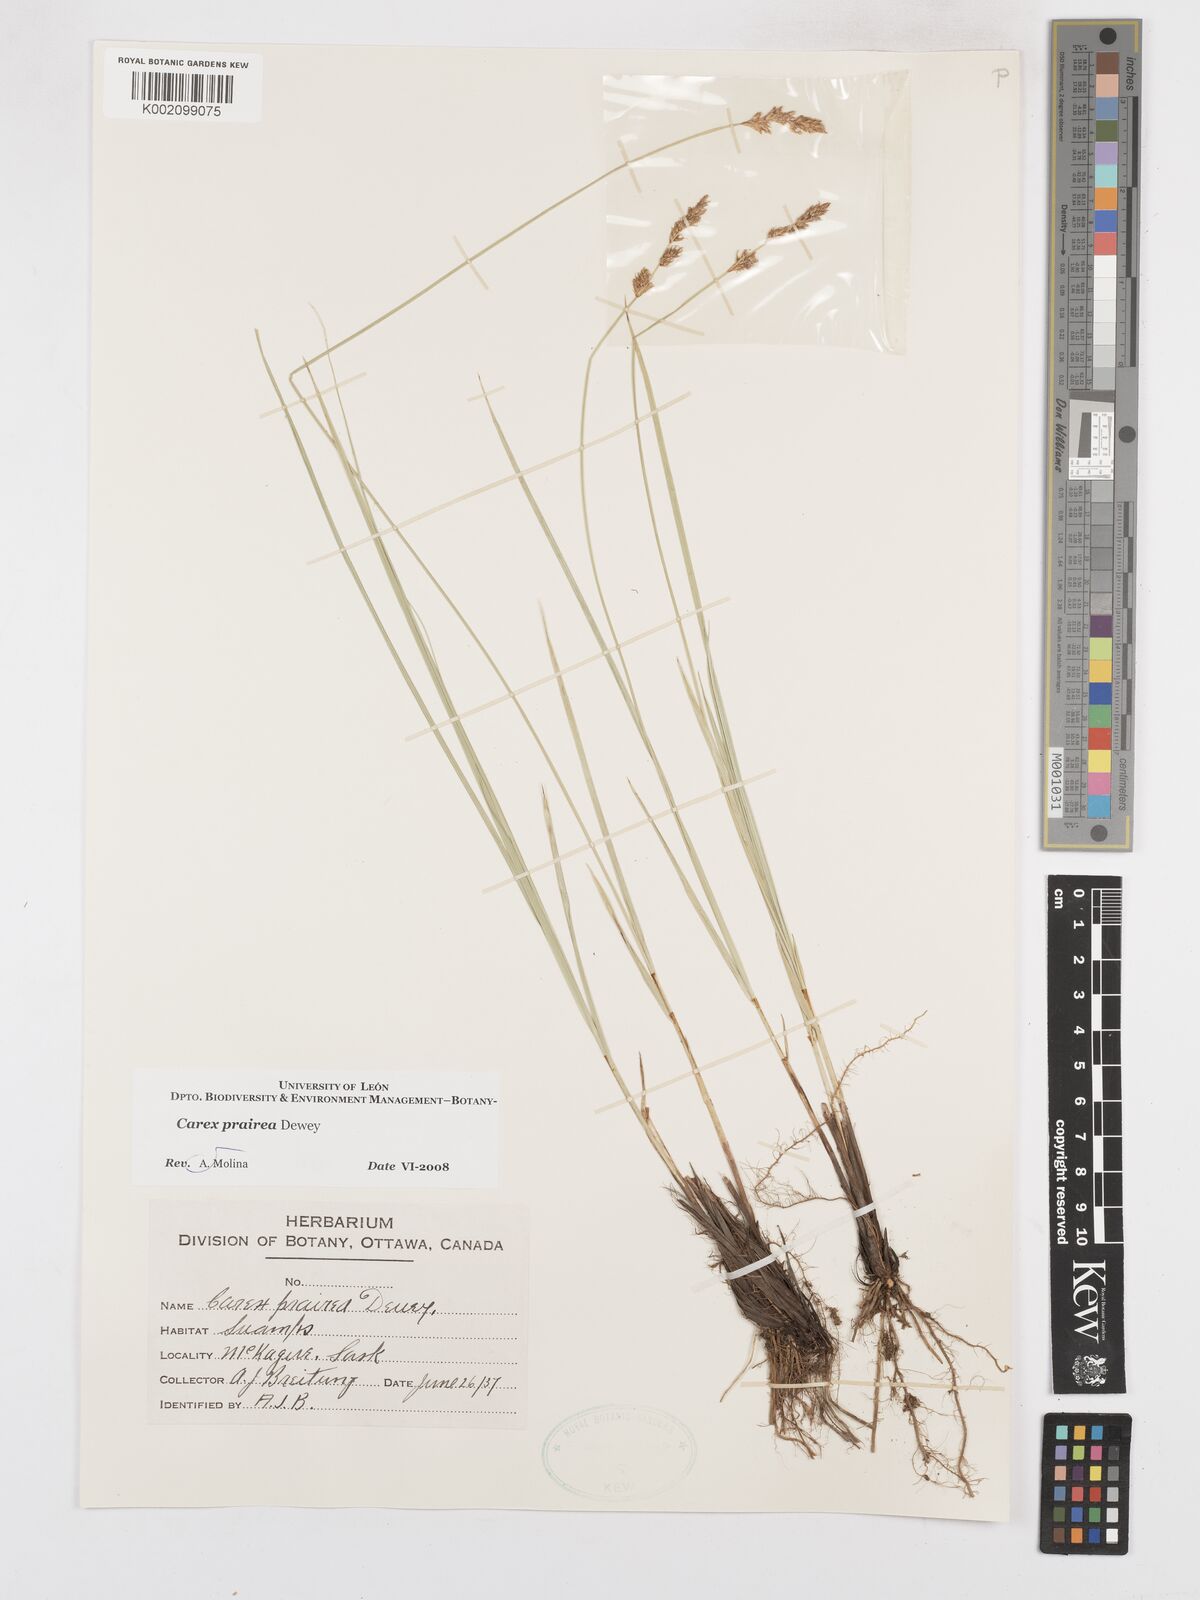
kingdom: Plantae
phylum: Tracheophyta
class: Liliopsida
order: Poales
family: Cyperaceae
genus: Carex
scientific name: Carex prairea
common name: Prairie sedge
